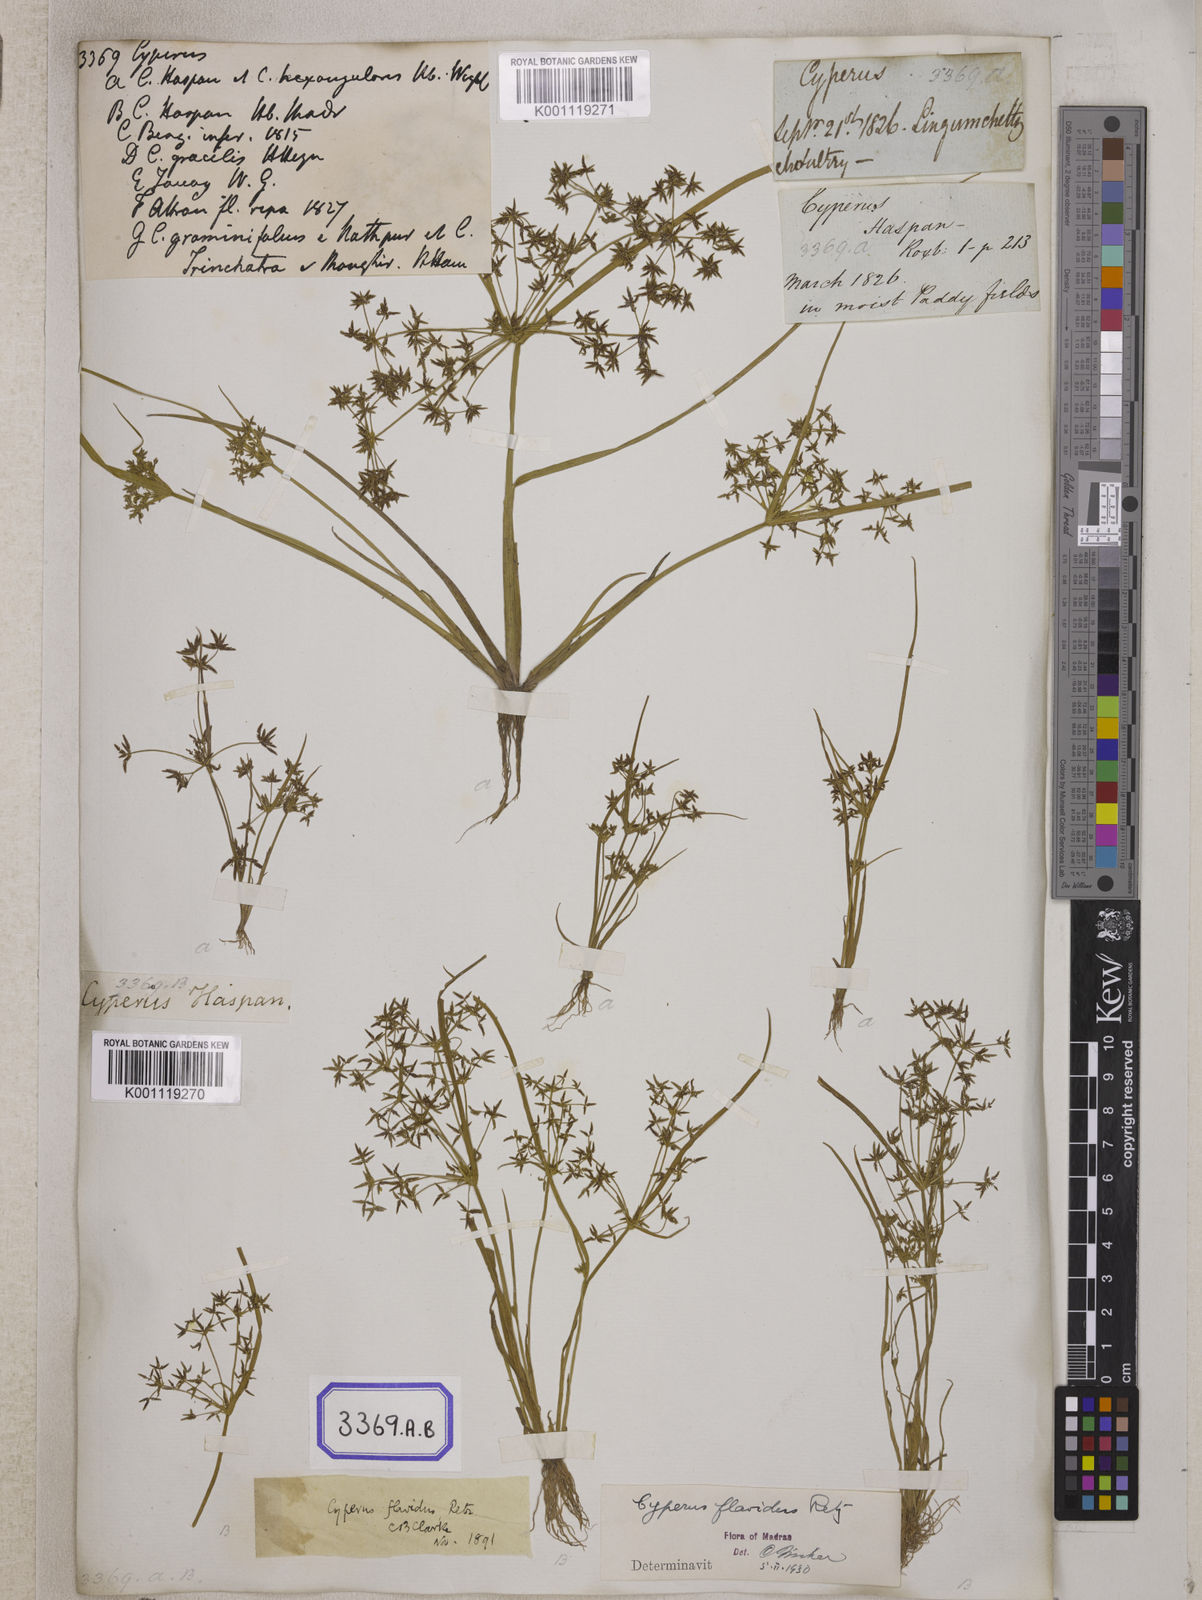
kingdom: Plantae
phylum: Tracheophyta
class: Liliopsida
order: Poales
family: Cyperaceae
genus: Cyperus
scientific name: Cyperus
